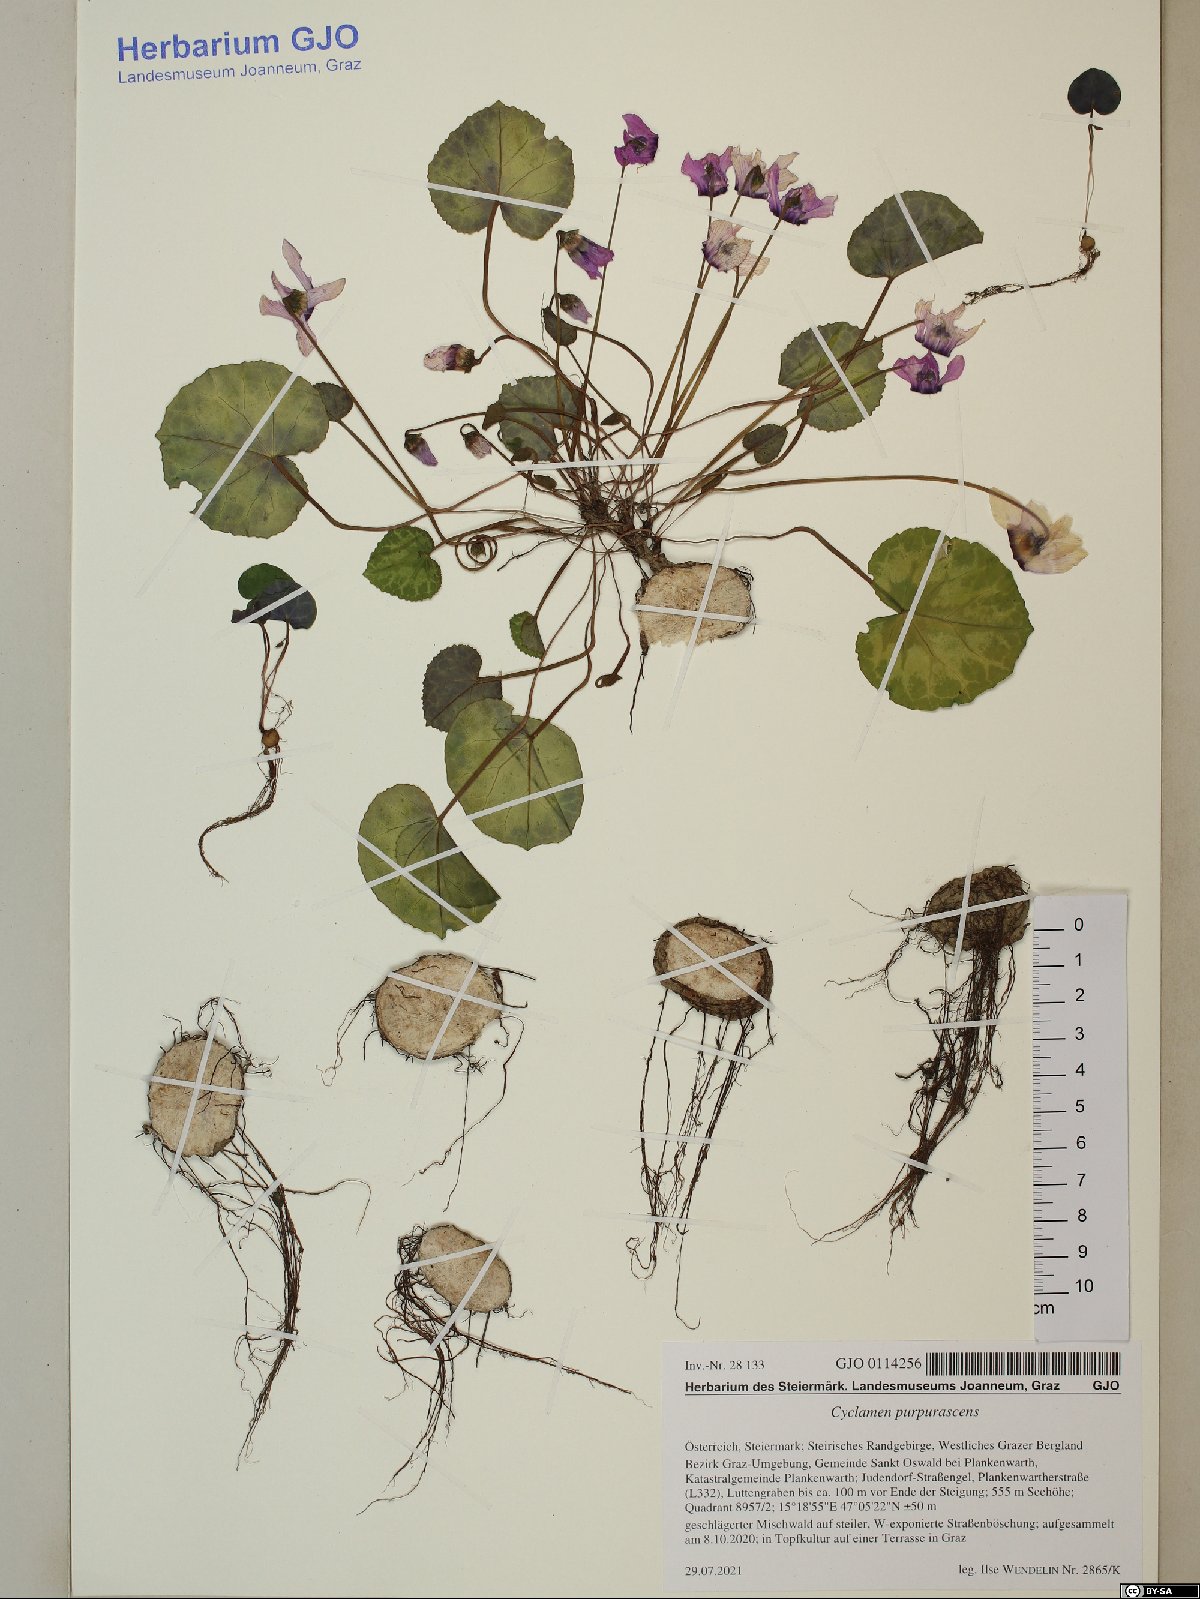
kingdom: Plantae
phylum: Tracheophyta
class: Magnoliopsida
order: Ericales
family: Primulaceae
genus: Cyclamen
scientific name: Cyclamen purpurascens
